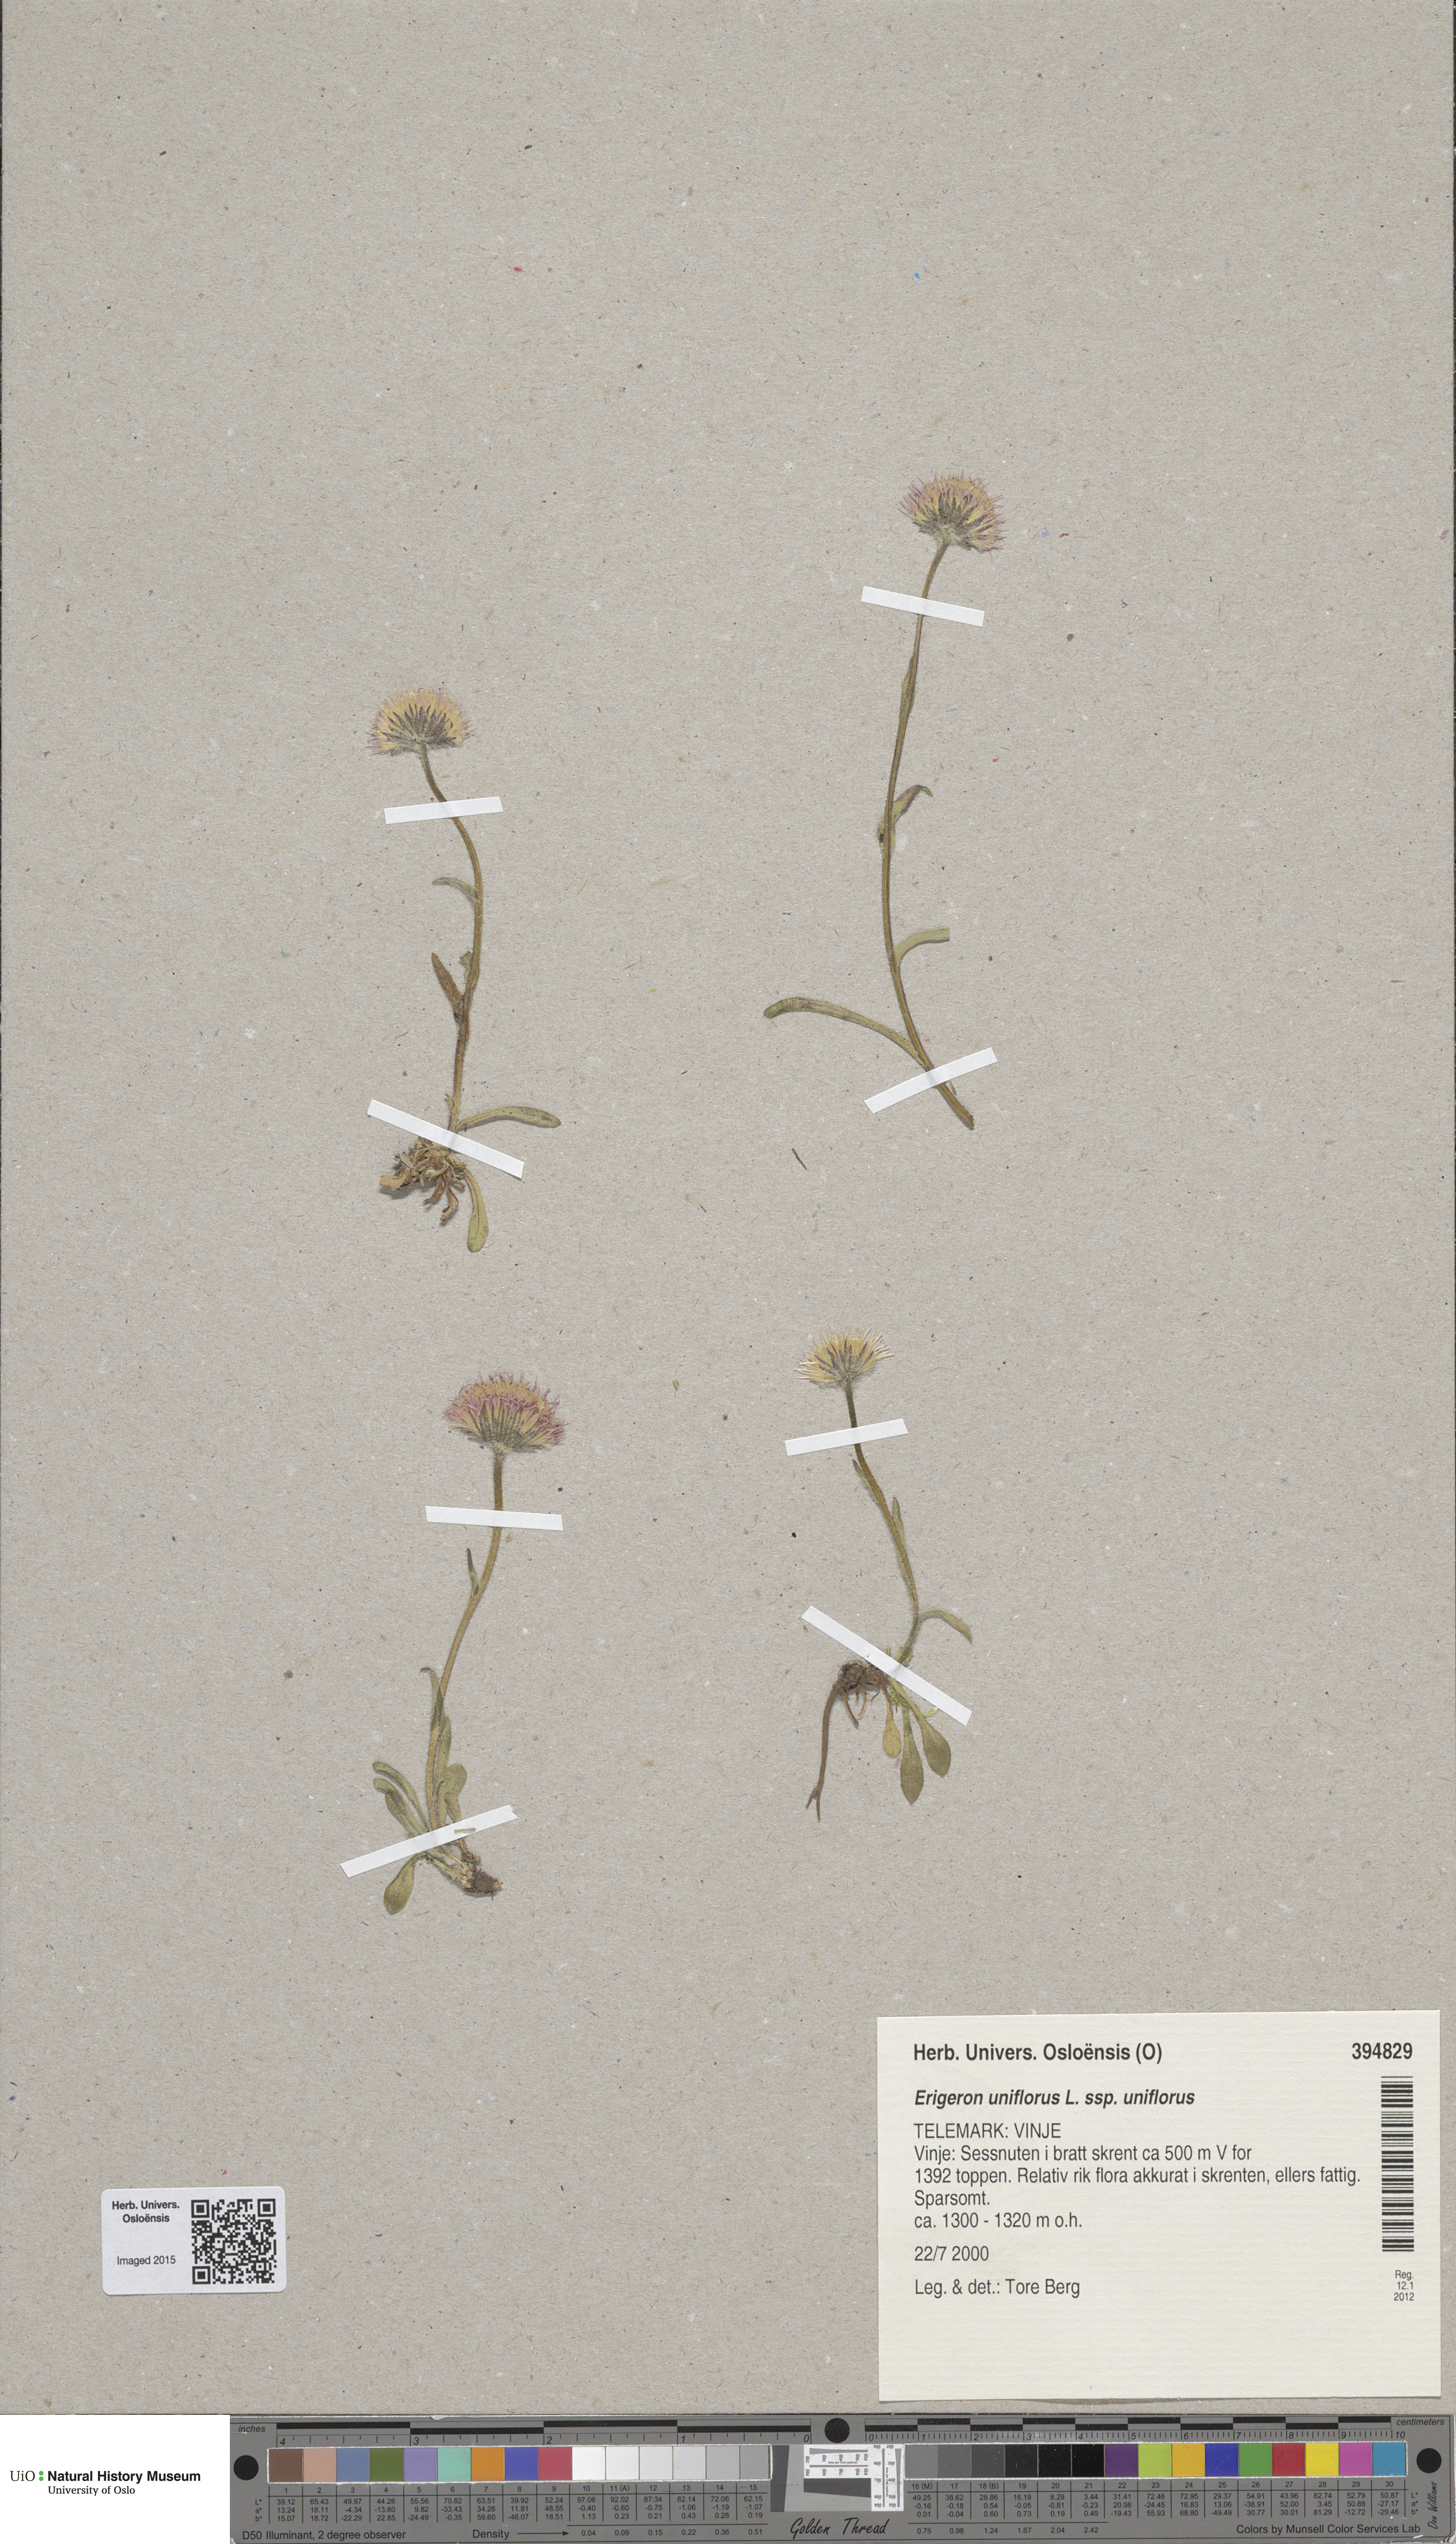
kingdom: Plantae
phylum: Tracheophyta
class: Magnoliopsida
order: Asterales
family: Asteraceae
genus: Erigeron
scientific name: Erigeron borealis
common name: Alpine fleabane
